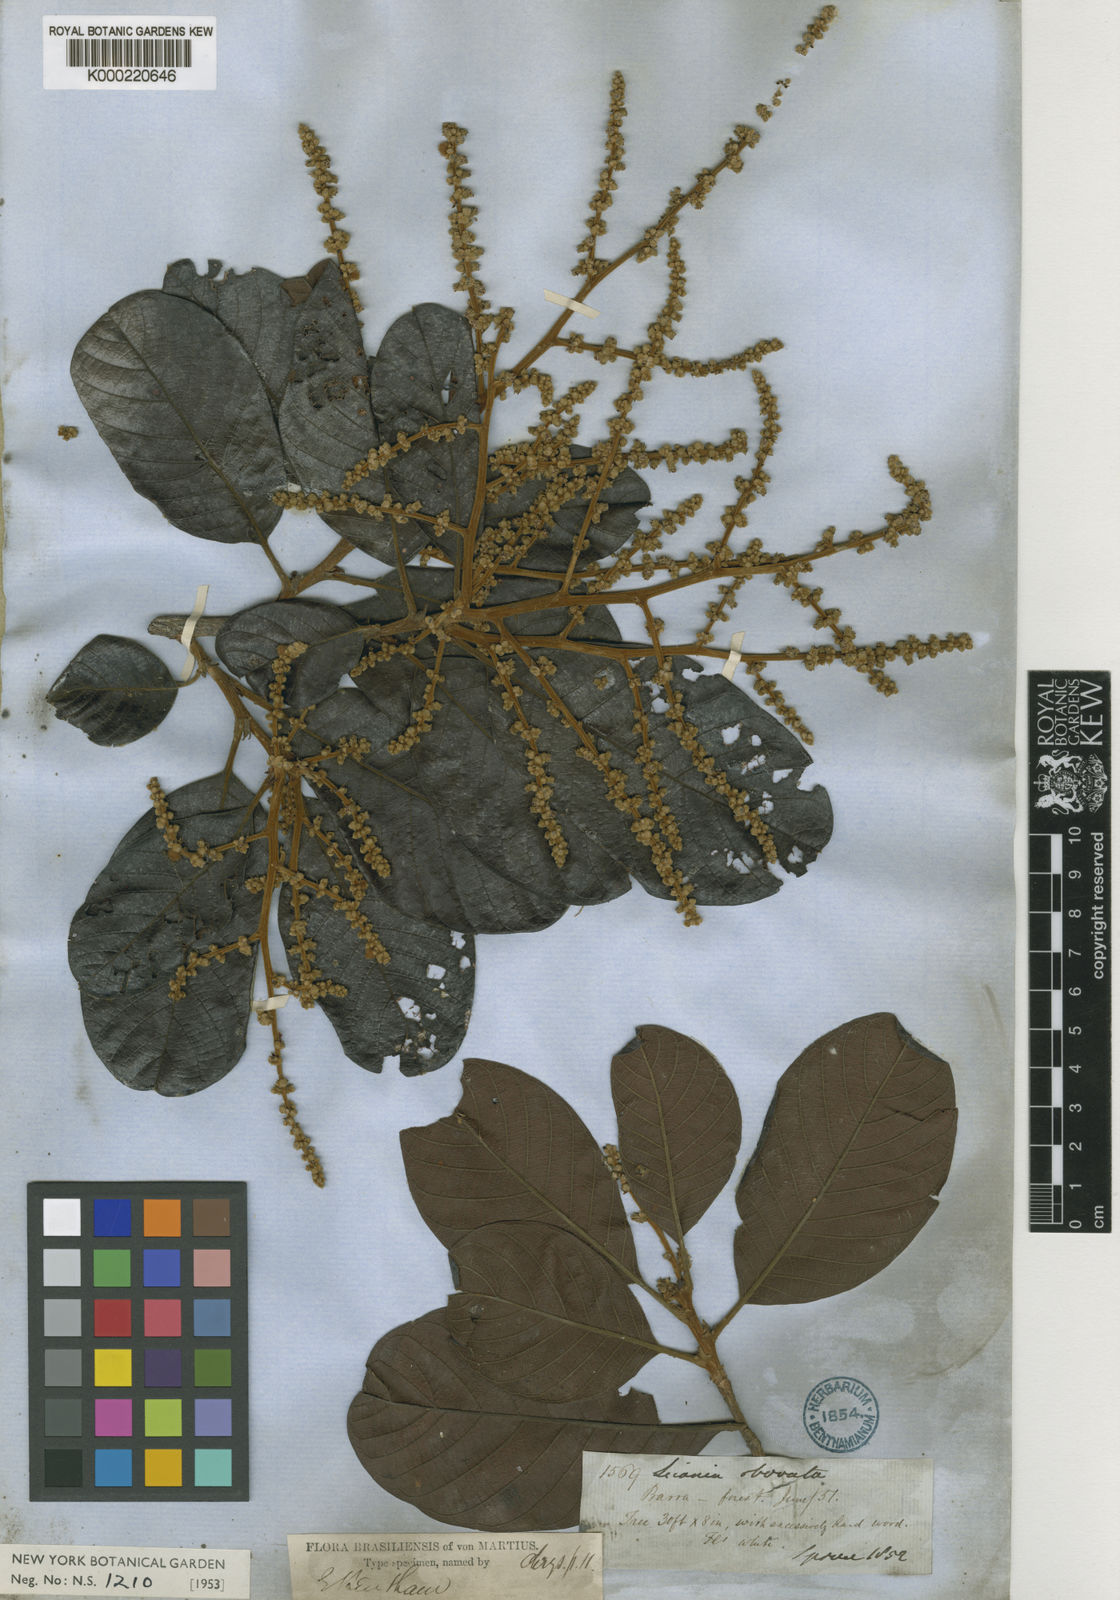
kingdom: Plantae
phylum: Tracheophyta
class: Magnoliopsida
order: Malpighiales
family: Chrysobalanaceae
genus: Hymenopus
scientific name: Hymenopus latifolius
